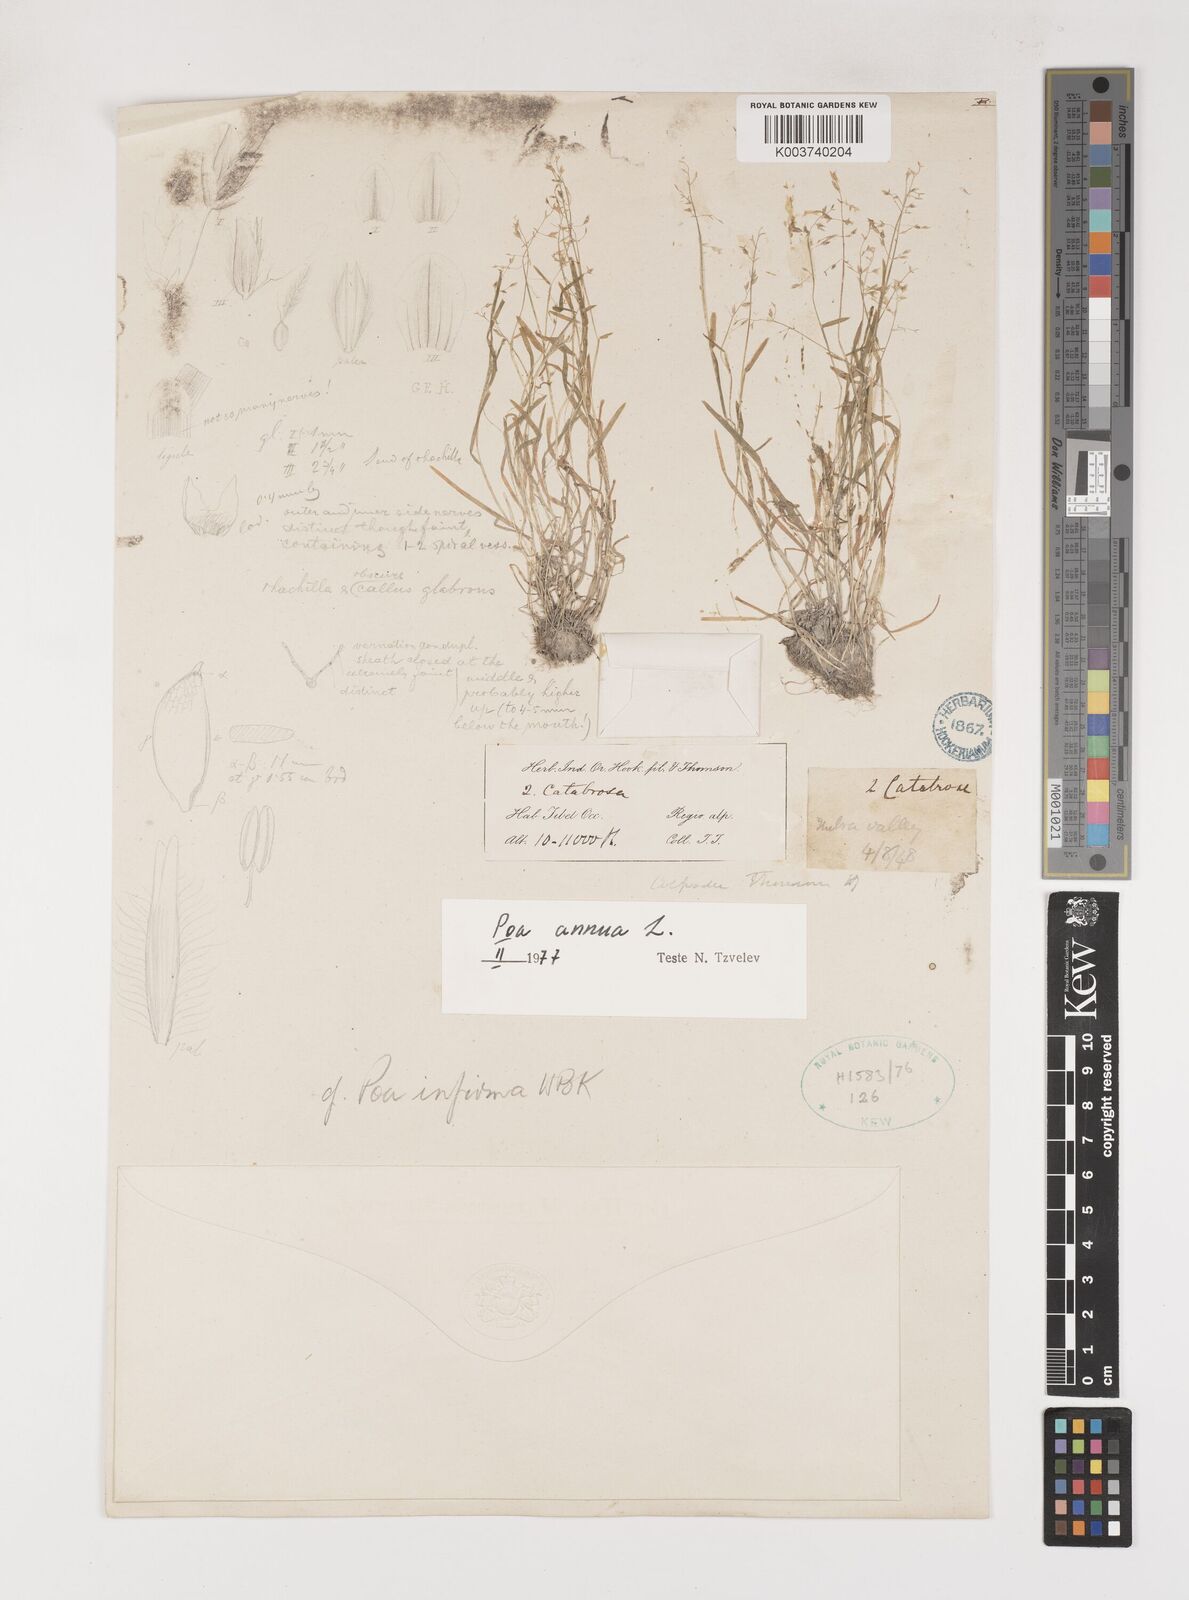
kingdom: Plantae
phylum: Tracheophyta
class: Liliopsida
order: Poales
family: Poaceae
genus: Poa
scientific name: Poa annua
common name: Annual bluegrass
